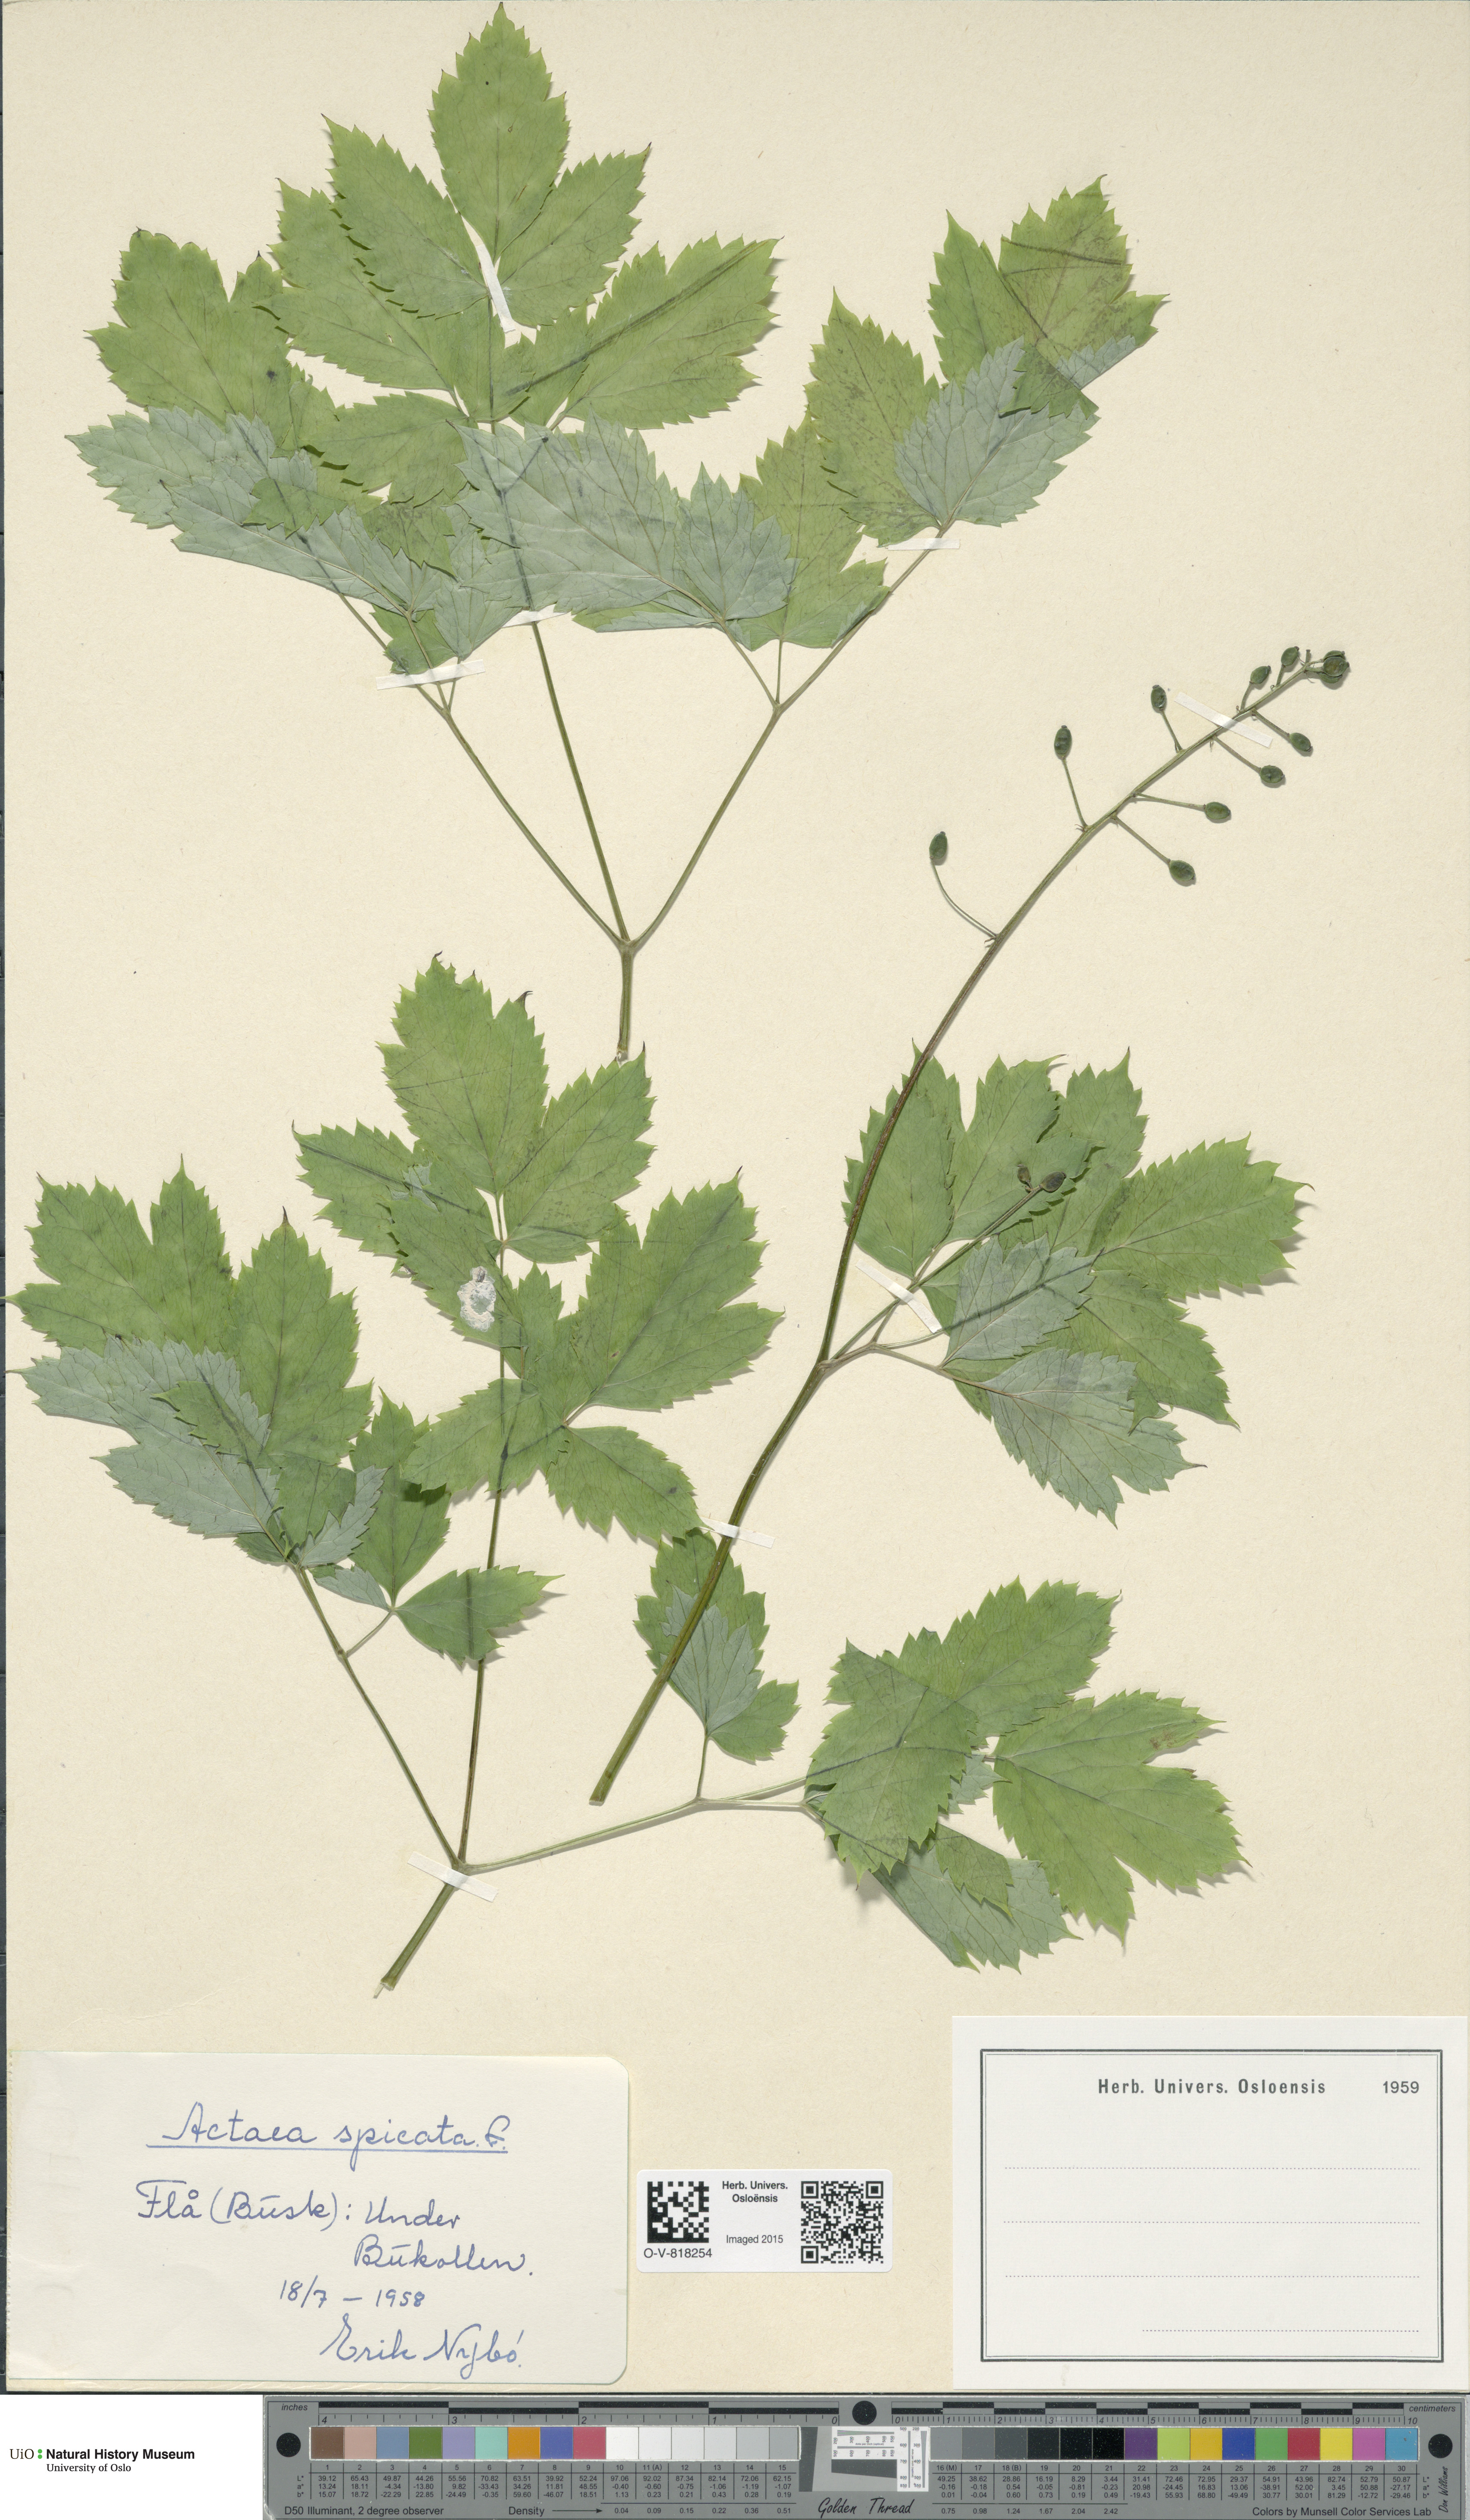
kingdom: Plantae
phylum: Tracheophyta
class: Magnoliopsida
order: Ranunculales
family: Ranunculaceae
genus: Actaea
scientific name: Actaea spicata
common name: Baneberry
